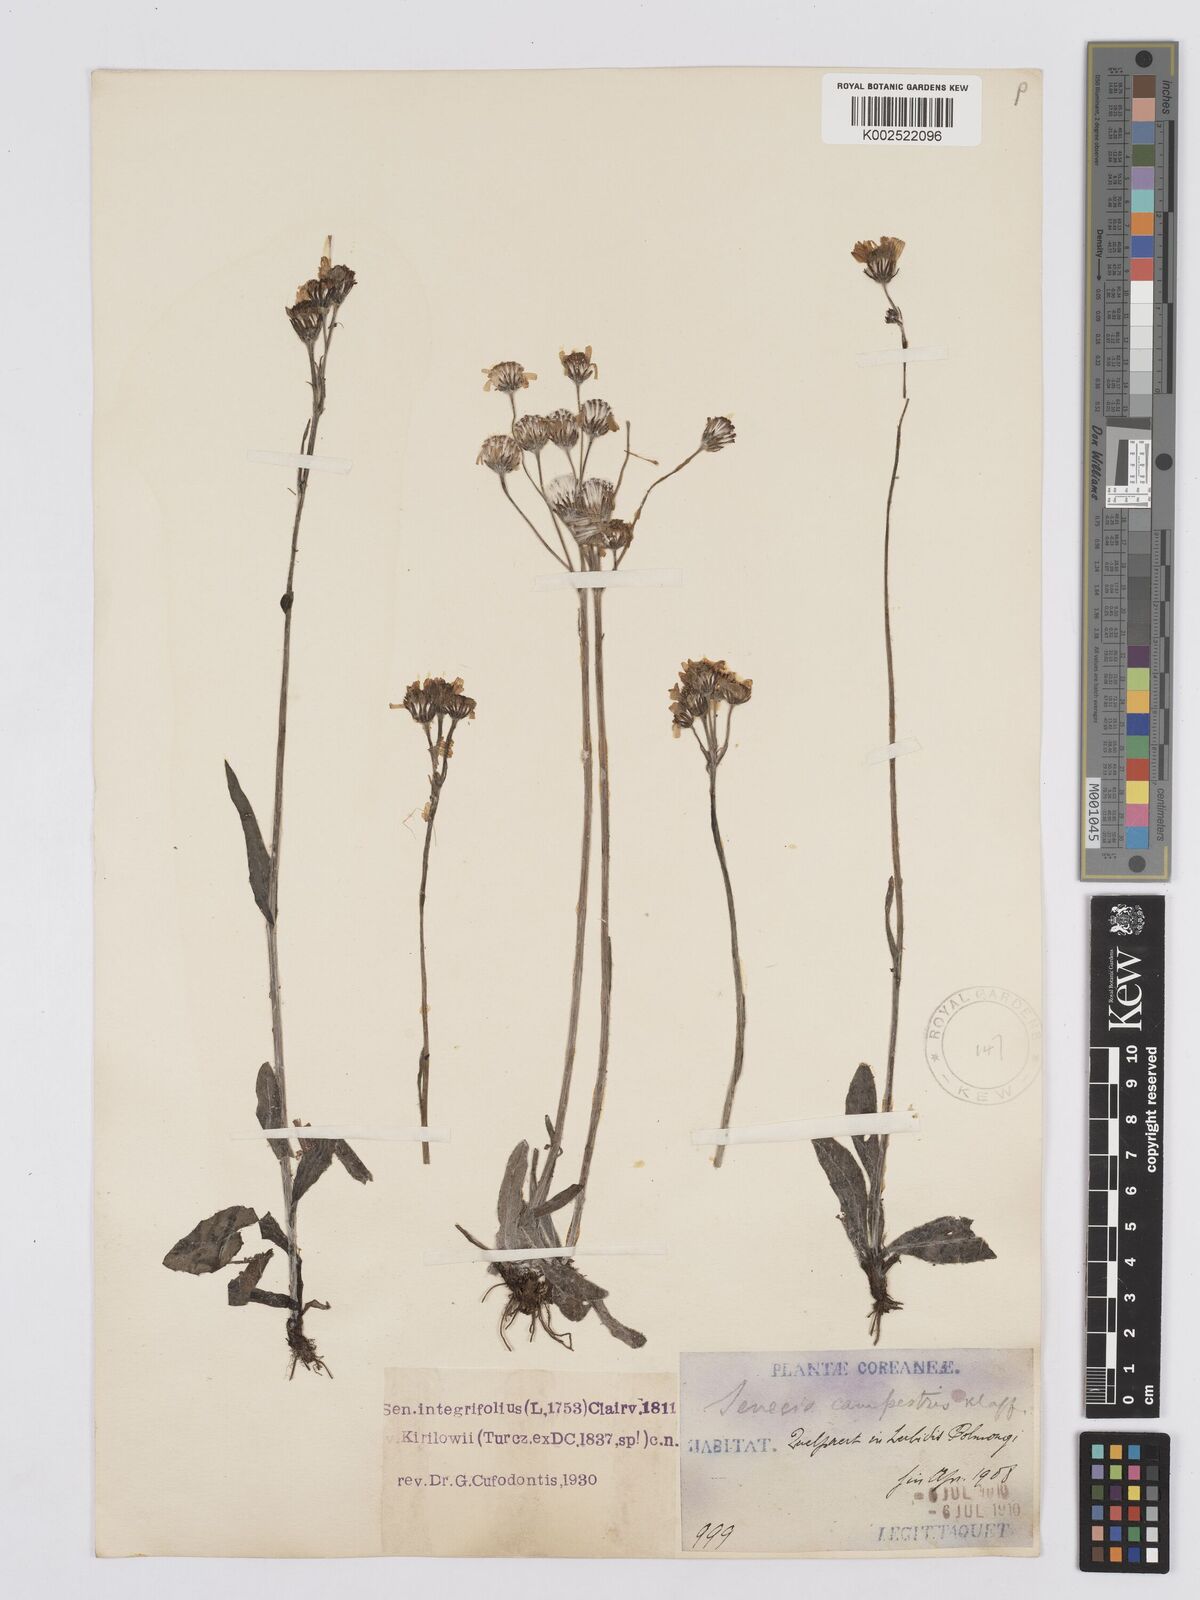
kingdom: Plantae
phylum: Tracheophyta
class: Magnoliopsida
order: Asterales
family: Asteraceae
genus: Tephroseris
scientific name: Tephroseris kirilowii
